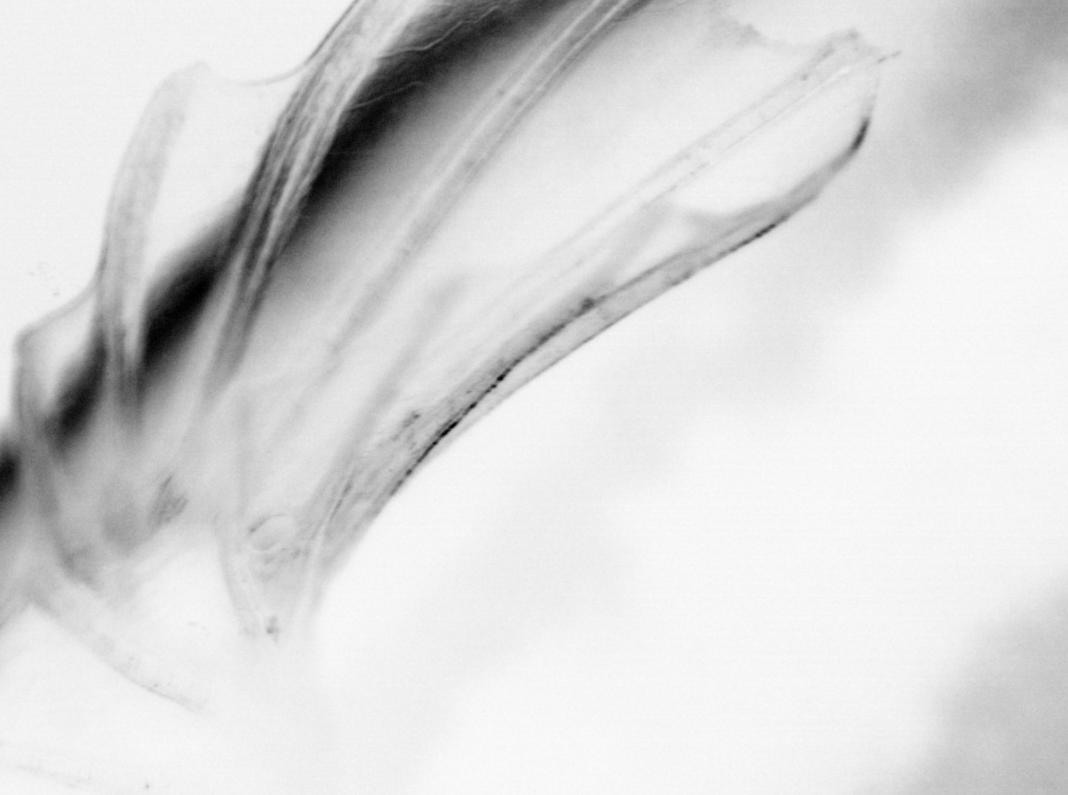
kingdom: Animalia
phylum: Chordata
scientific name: Chordata
